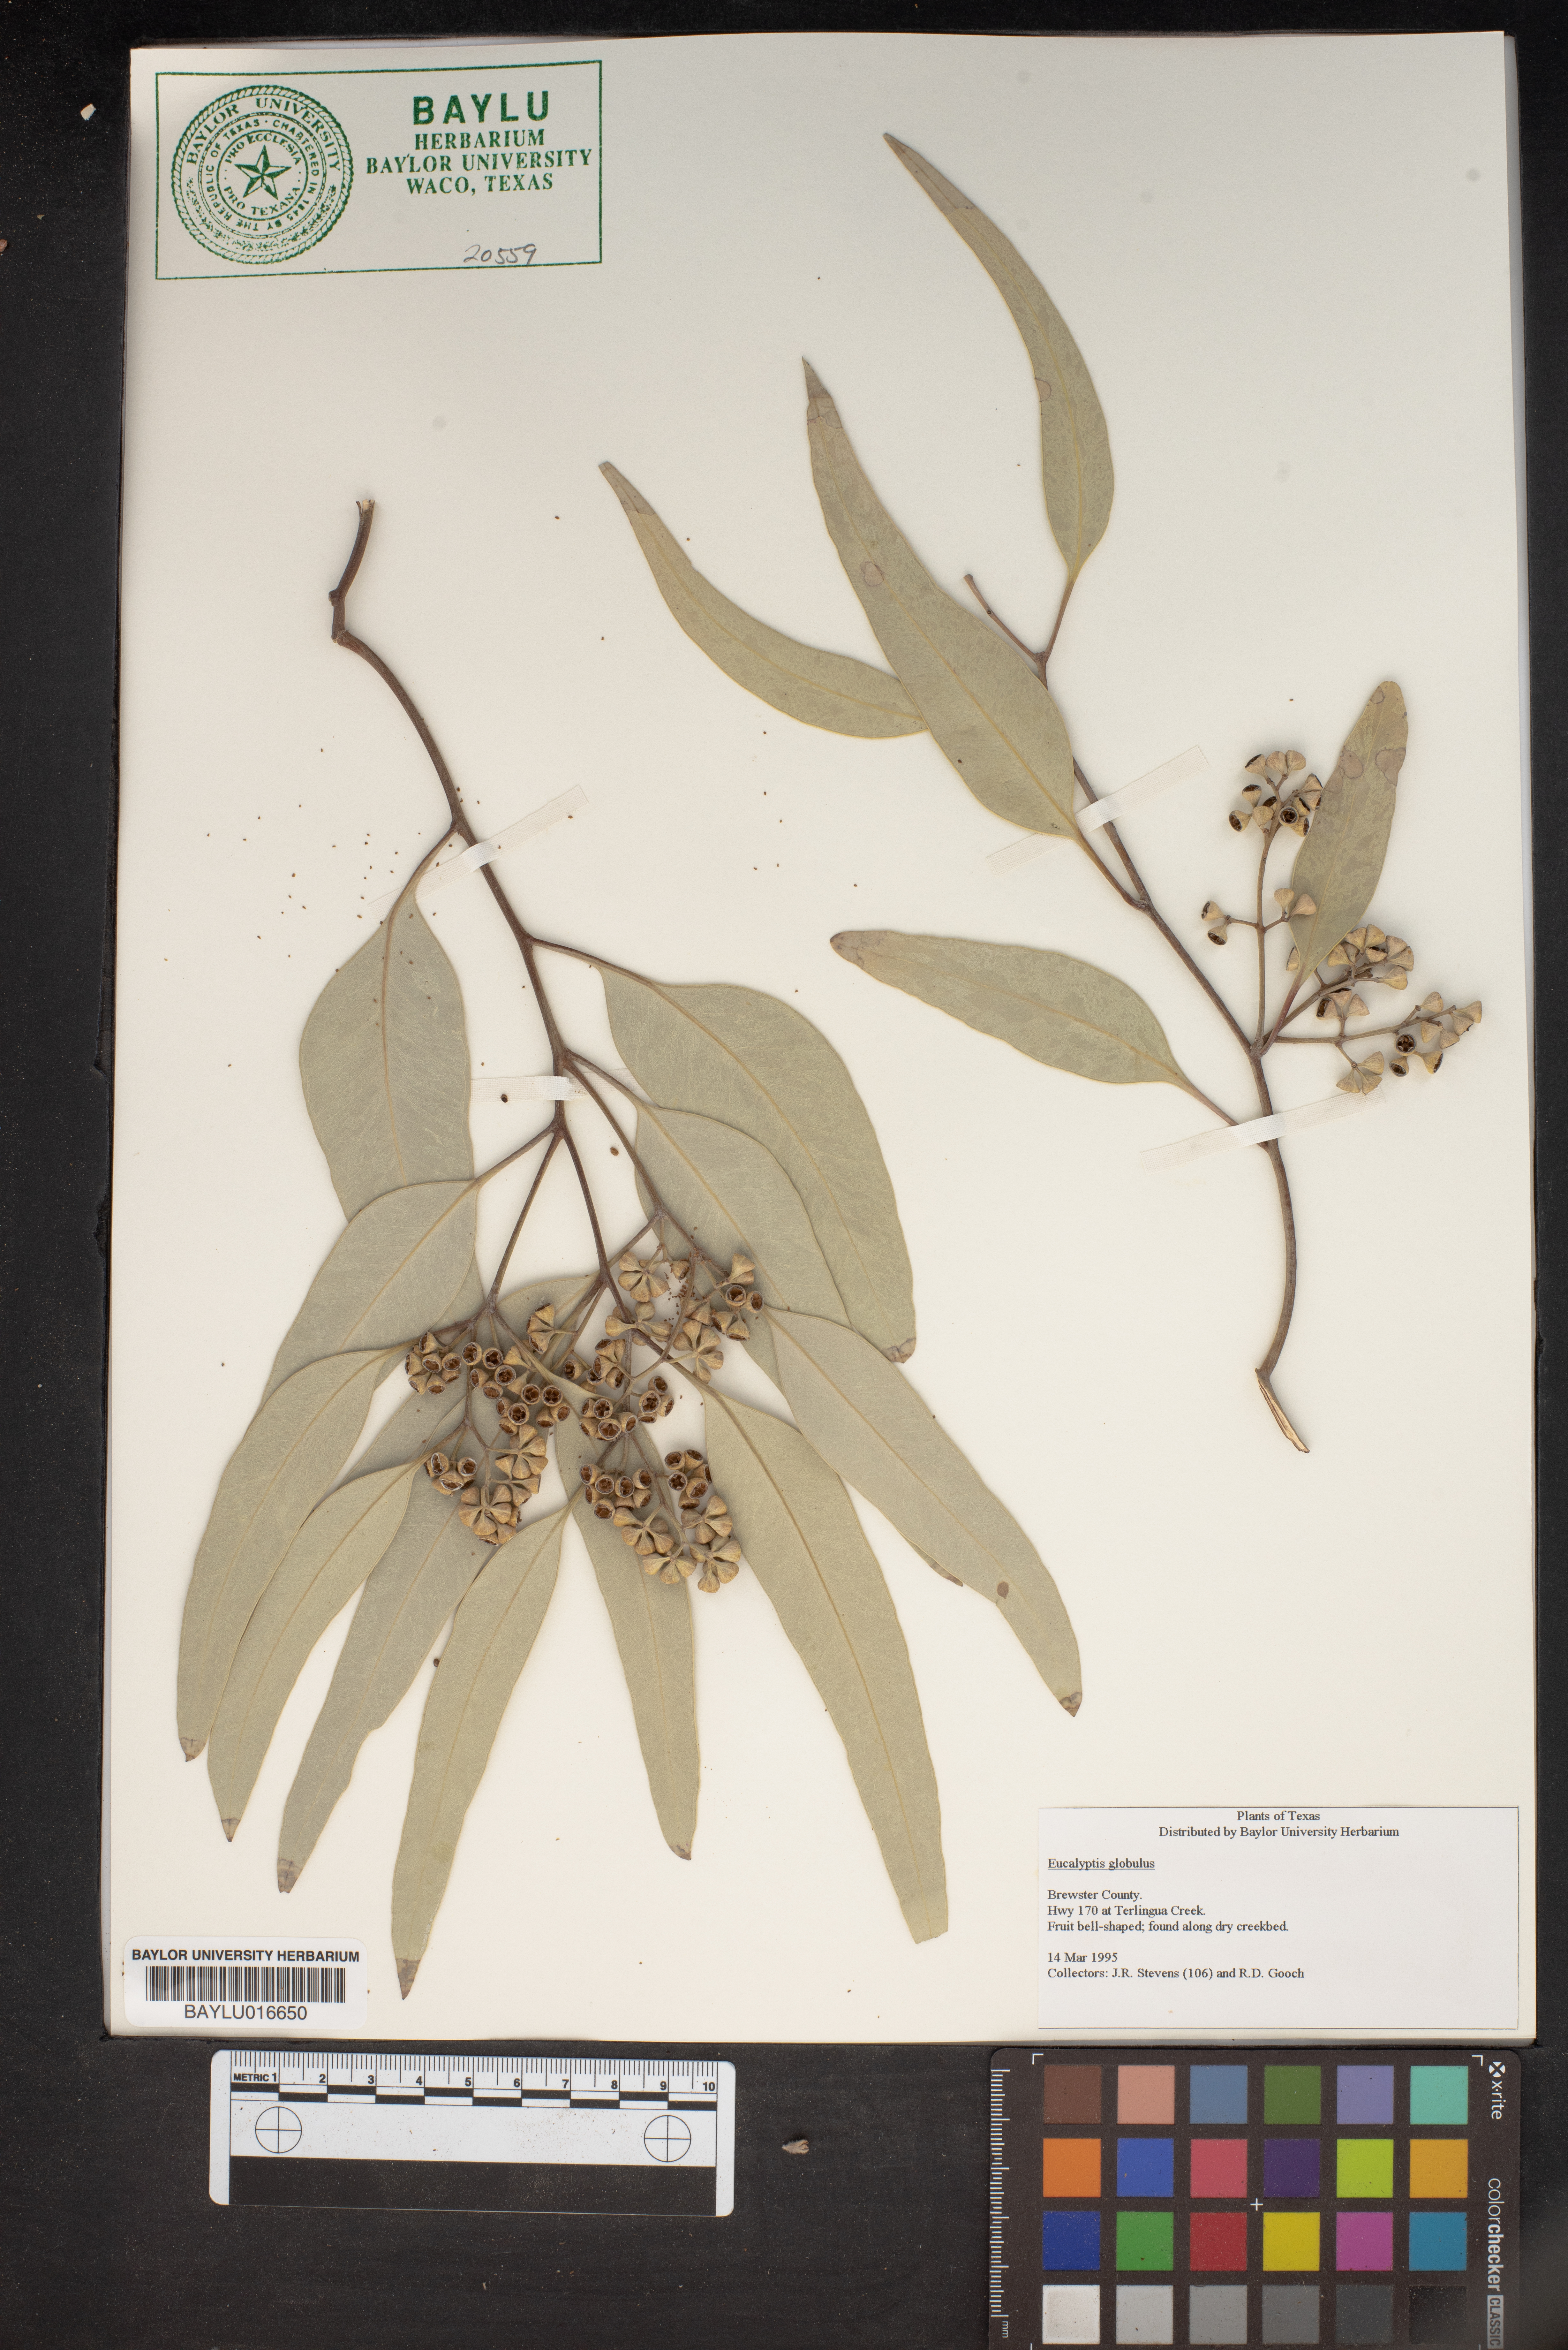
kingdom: Plantae
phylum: Tracheophyta
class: Magnoliopsida
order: Myrtales
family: Myrtaceae
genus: Eucalyptus
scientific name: Eucalyptus globulus
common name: Southern blue-gum
